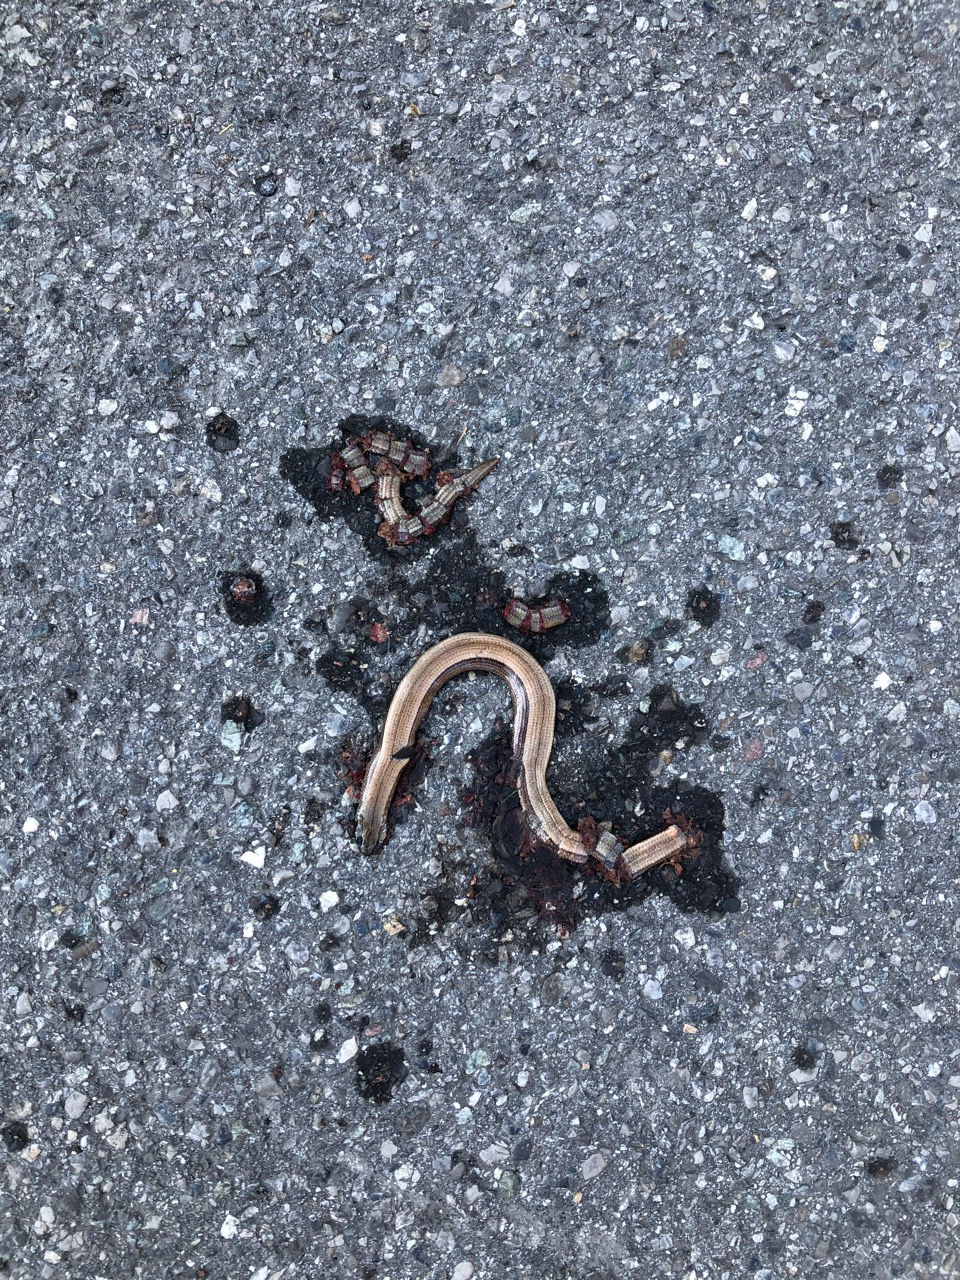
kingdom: Animalia
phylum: Chordata
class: Squamata
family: Anguidae
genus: Anguis
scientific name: Anguis fragilis
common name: Slow worm
